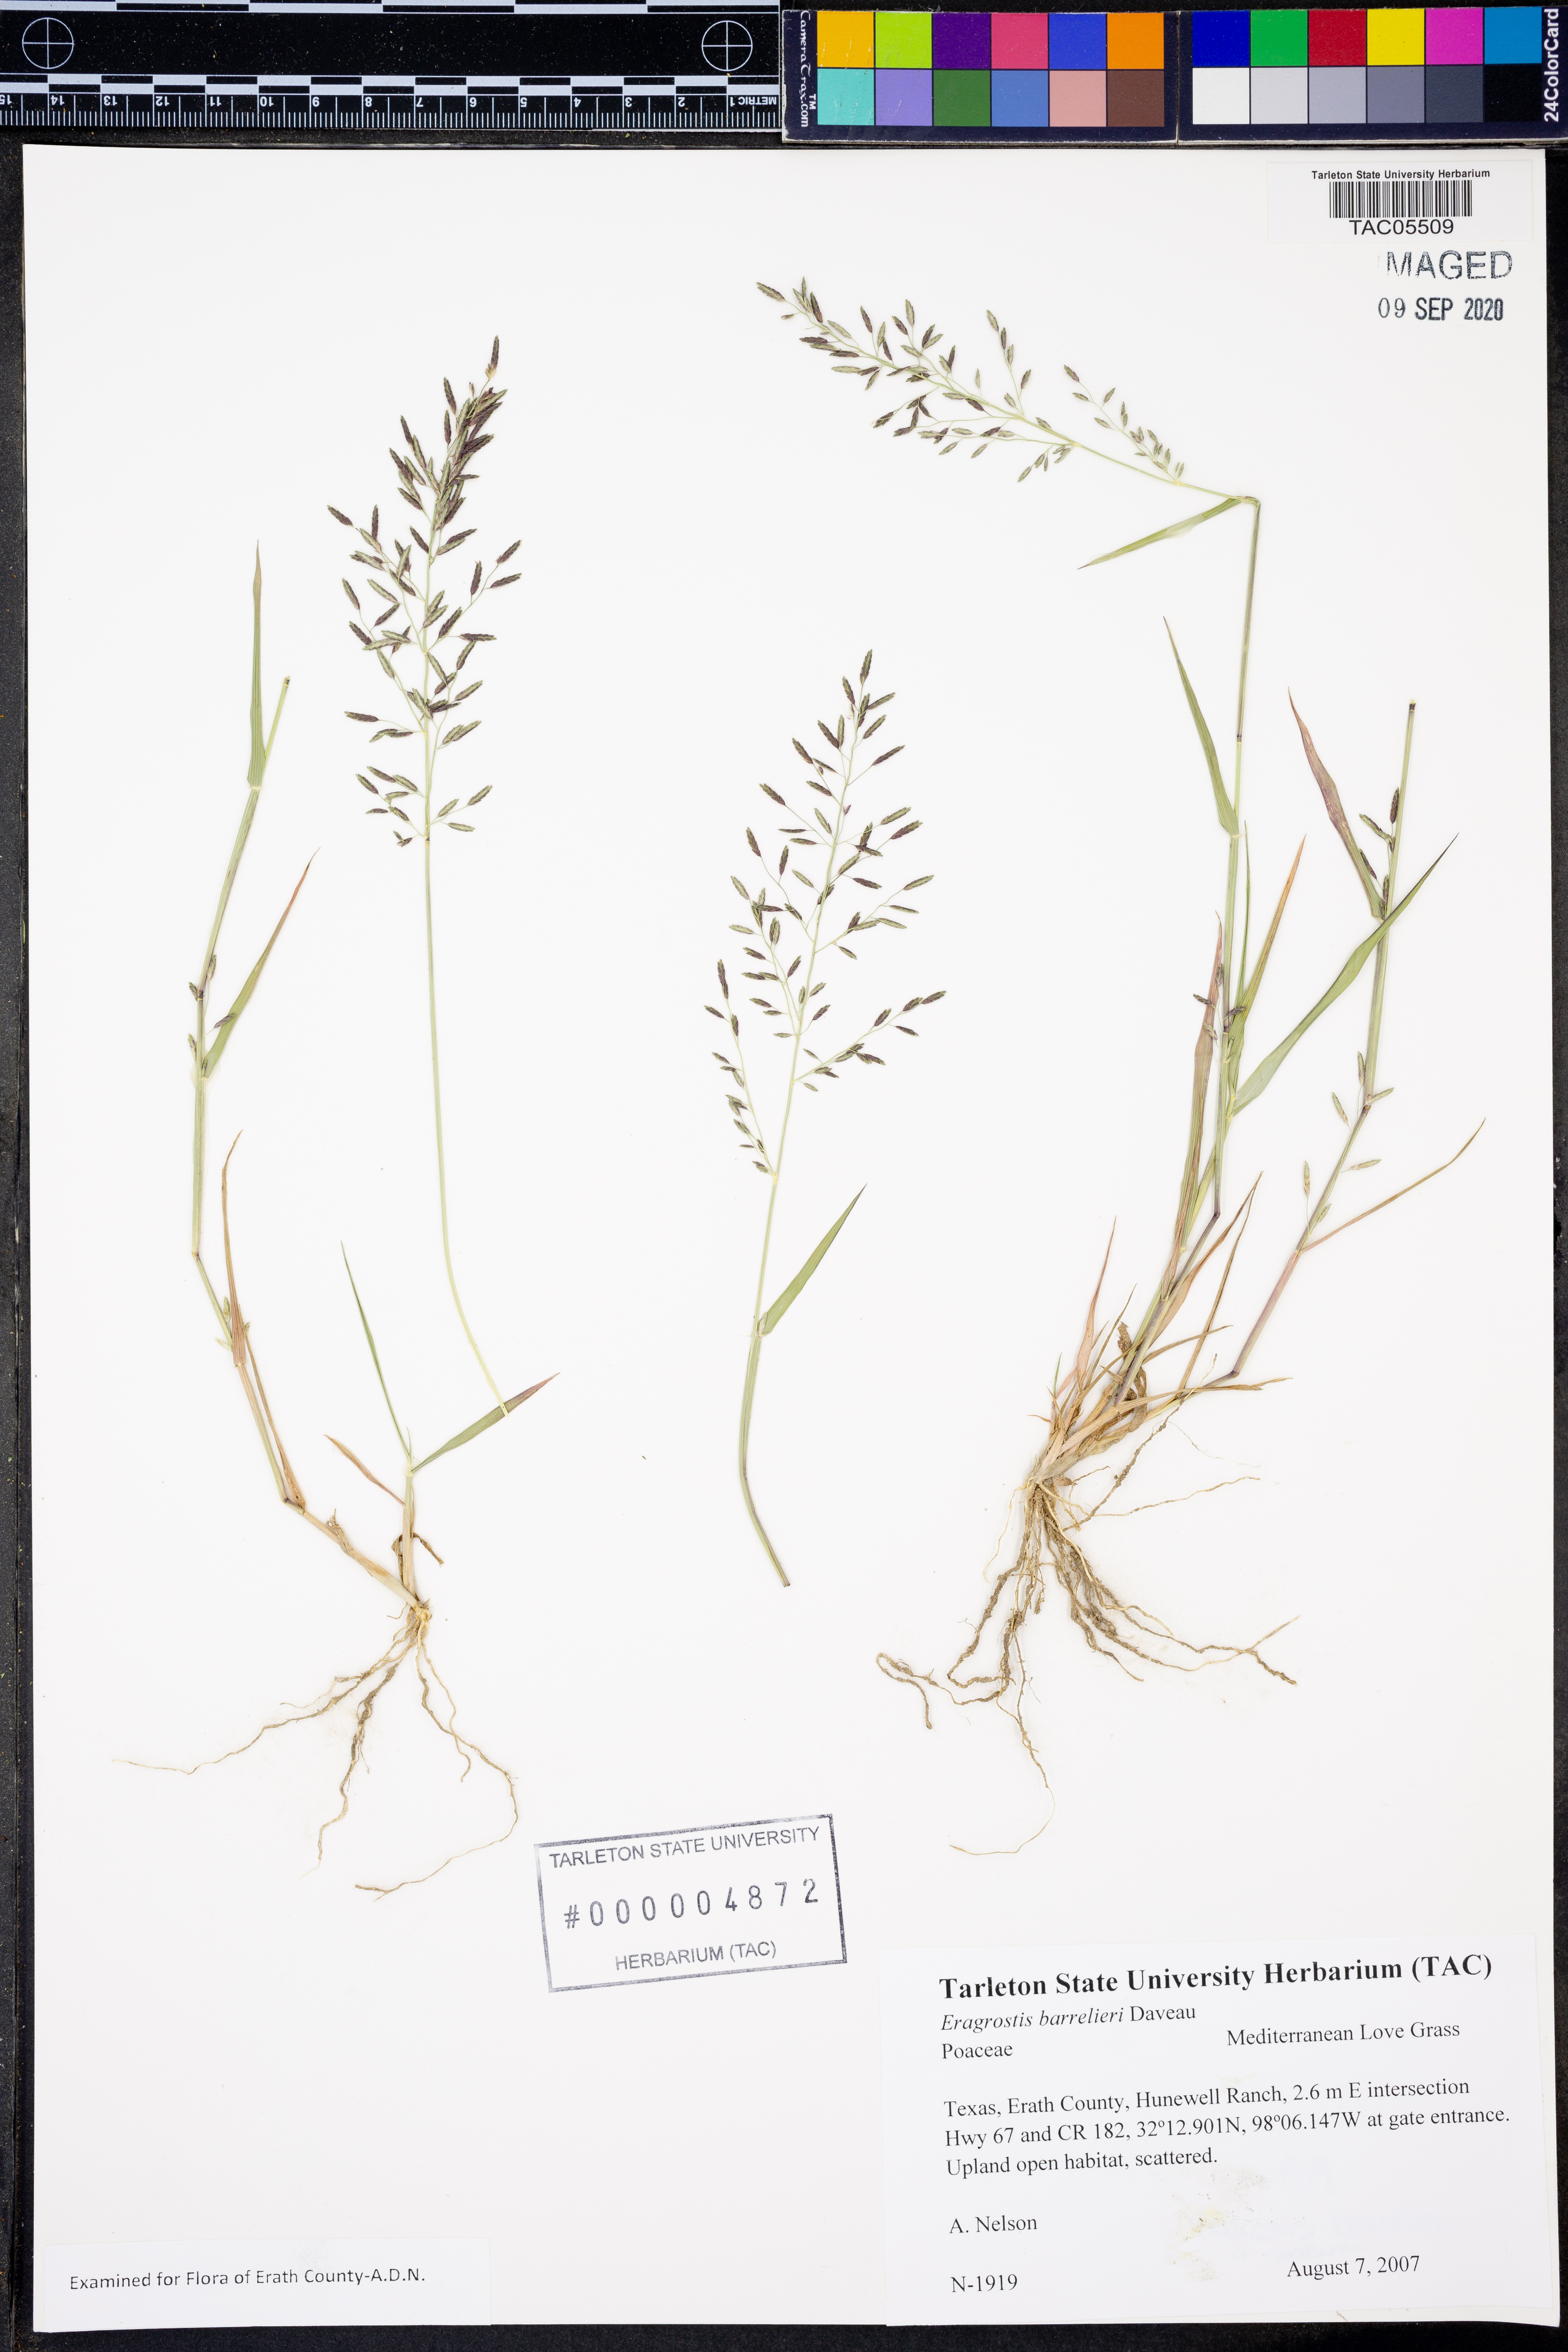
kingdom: Plantae
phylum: Tracheophyta
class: Liliopsida
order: Poales
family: Poaceae
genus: Eragrostis
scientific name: Eragrostis barrelieri
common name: Mediterranean lovegrass
